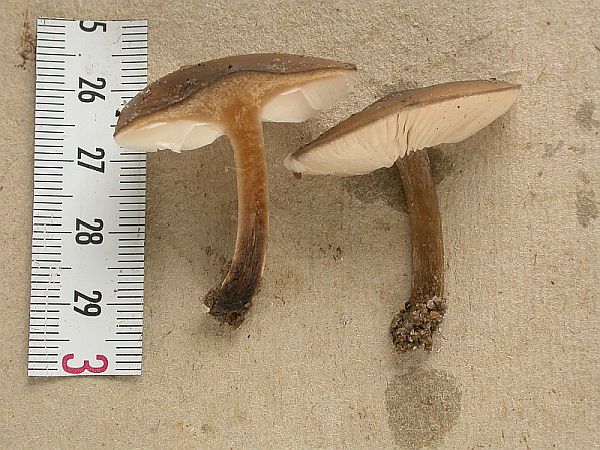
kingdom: Fungi
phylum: Basidiomycota
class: Agaricomycetes
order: Agaricales
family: Tricholomataceae
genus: Melanoleuca
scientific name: Melanoleuca oreina
